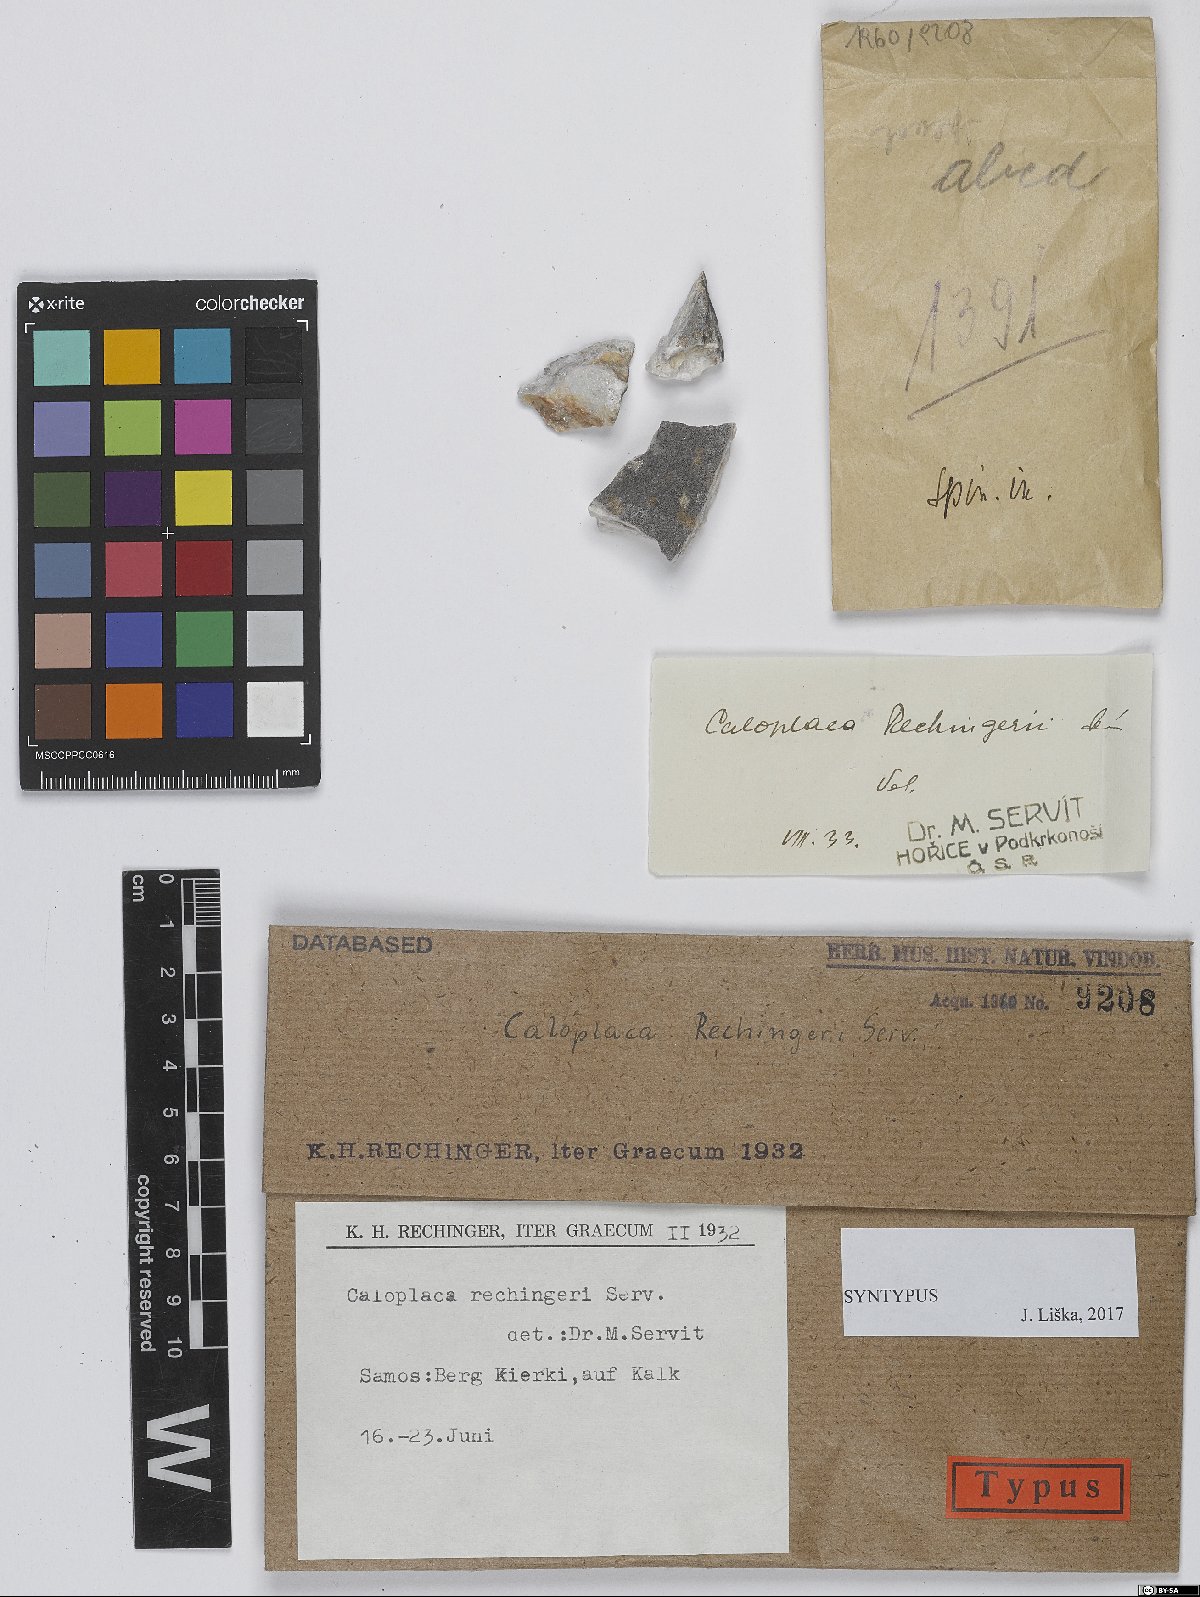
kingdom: Fungi
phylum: Ascomycota
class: Lecanoromycetes
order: Teloschistales
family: Teloschistaceae
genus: Caloplaca
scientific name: Caloplaca
